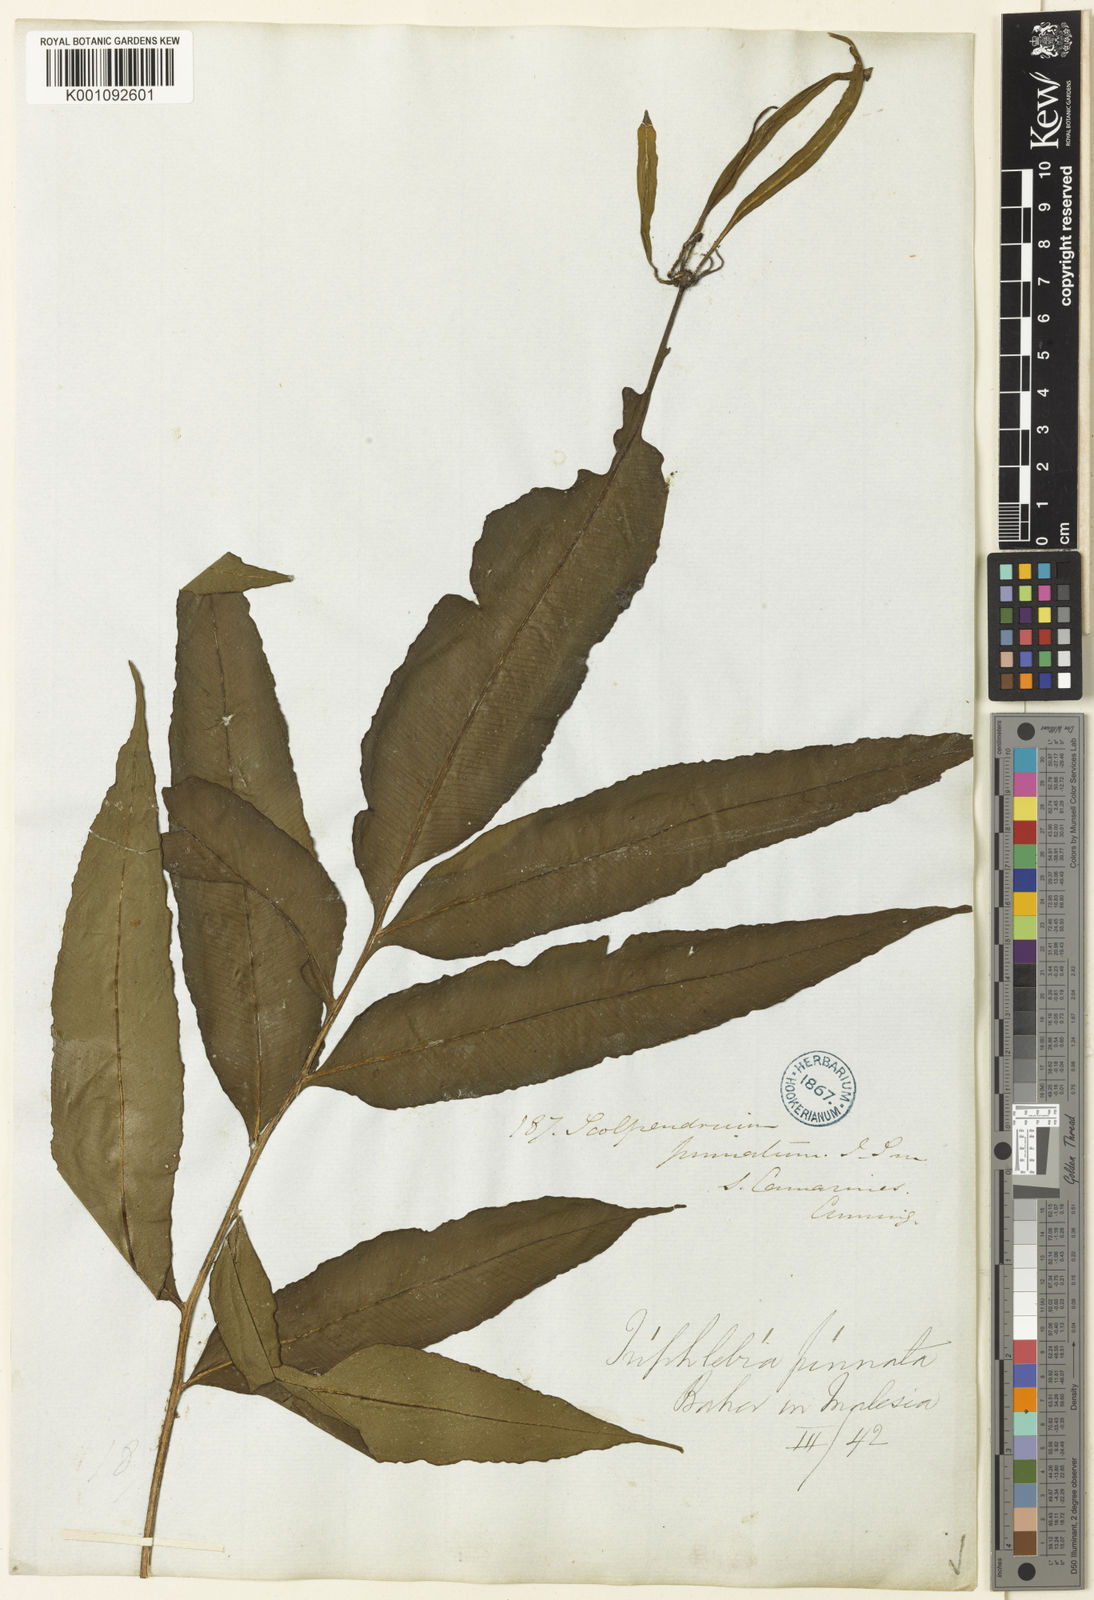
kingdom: Plantae
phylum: Tracheophyta
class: Polypodiopsida
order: Polypodiales
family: Aspleniaceae
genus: Asplenium
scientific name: Asplenium
